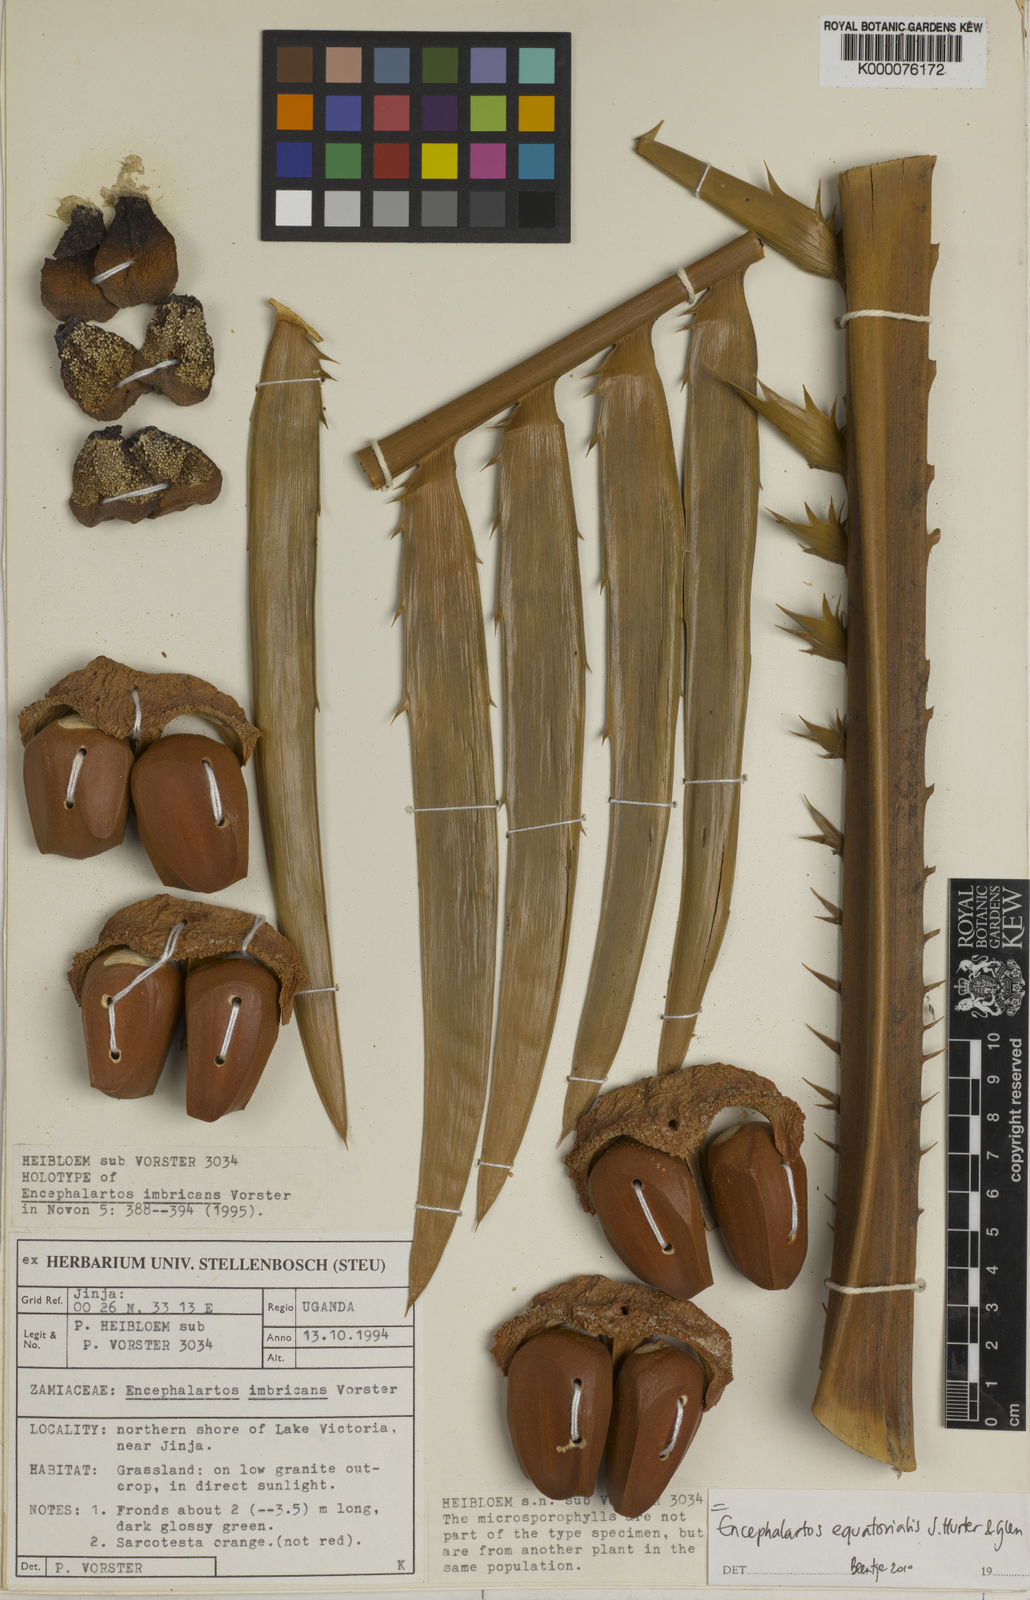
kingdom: Plantae
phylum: Tracheophyta
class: Cycadopsida
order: Cycadales
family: Zamiaceae
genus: Encephalartos
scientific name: Encephalartos equatorialis
